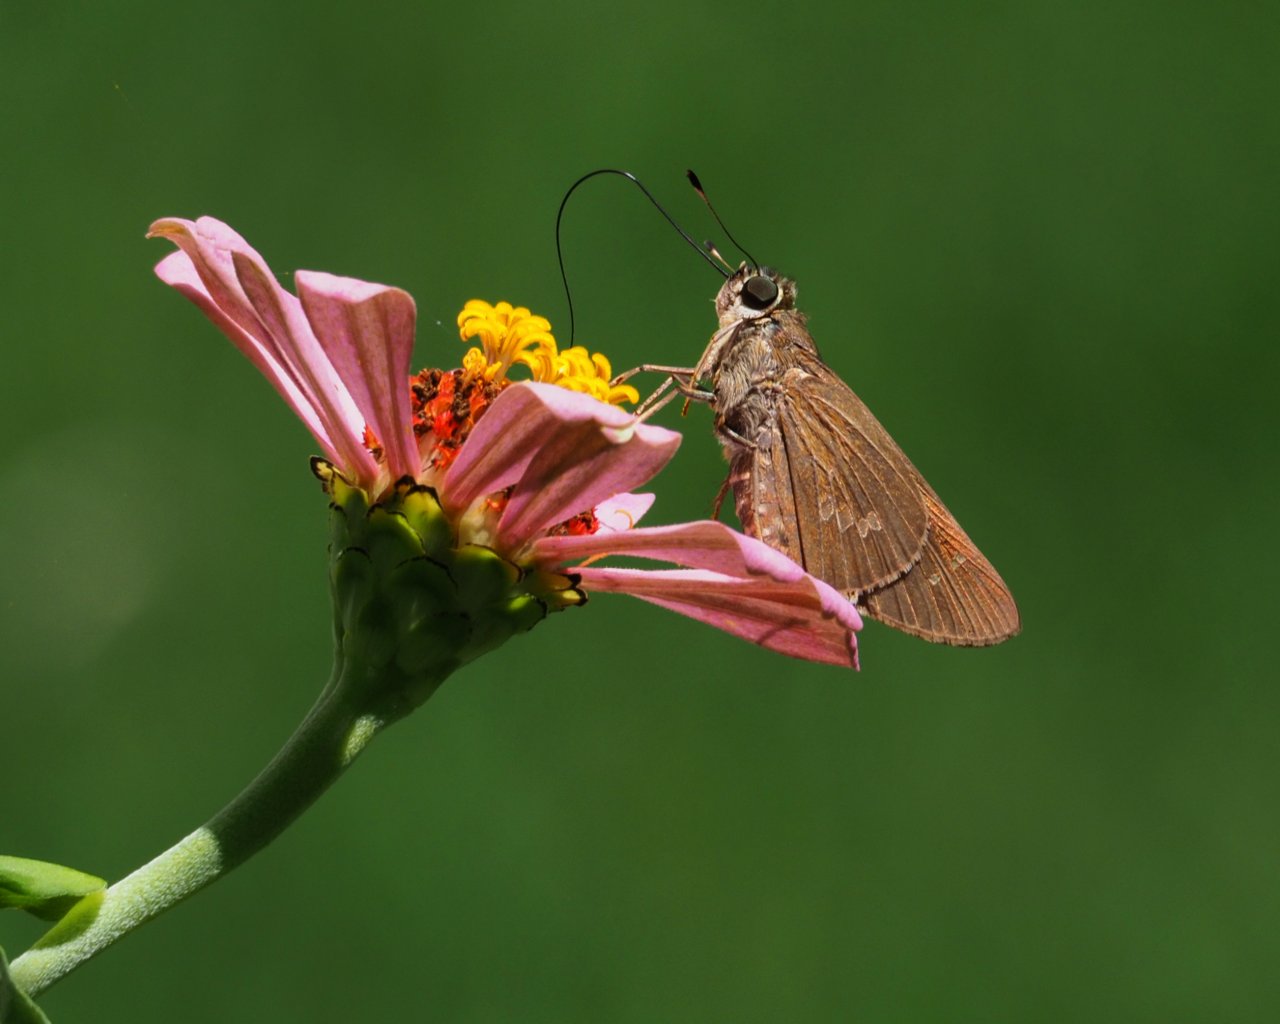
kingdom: Animalia
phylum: Arthropoda
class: Insecta
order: Lepidoptera
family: Hesperiidae
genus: Calpodes
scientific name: Calpodes ethlius
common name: Brazilian Skipper
